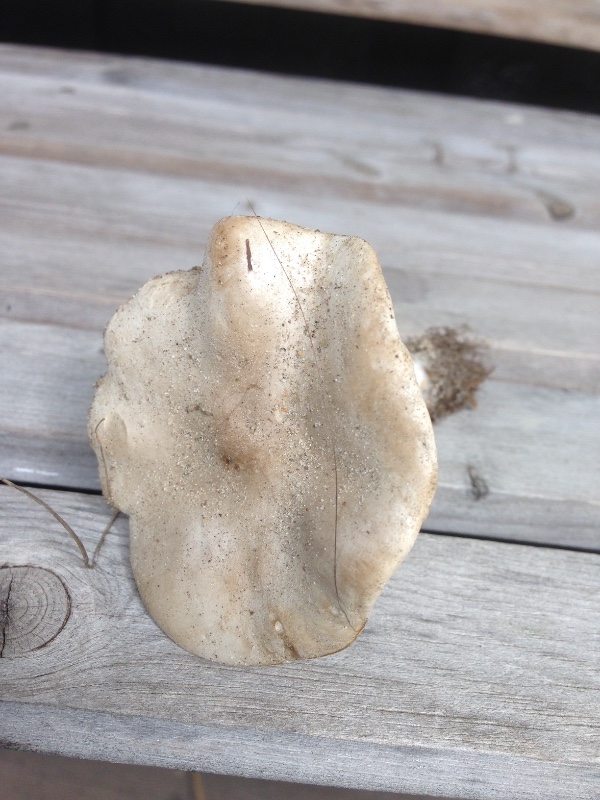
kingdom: Fungi
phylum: Basidiomycota
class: Agaricomycetes
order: Agaricales
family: Tricholomataceae
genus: Melanoleuca
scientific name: Melanoleuca strictipes
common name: sommer-munkehat
